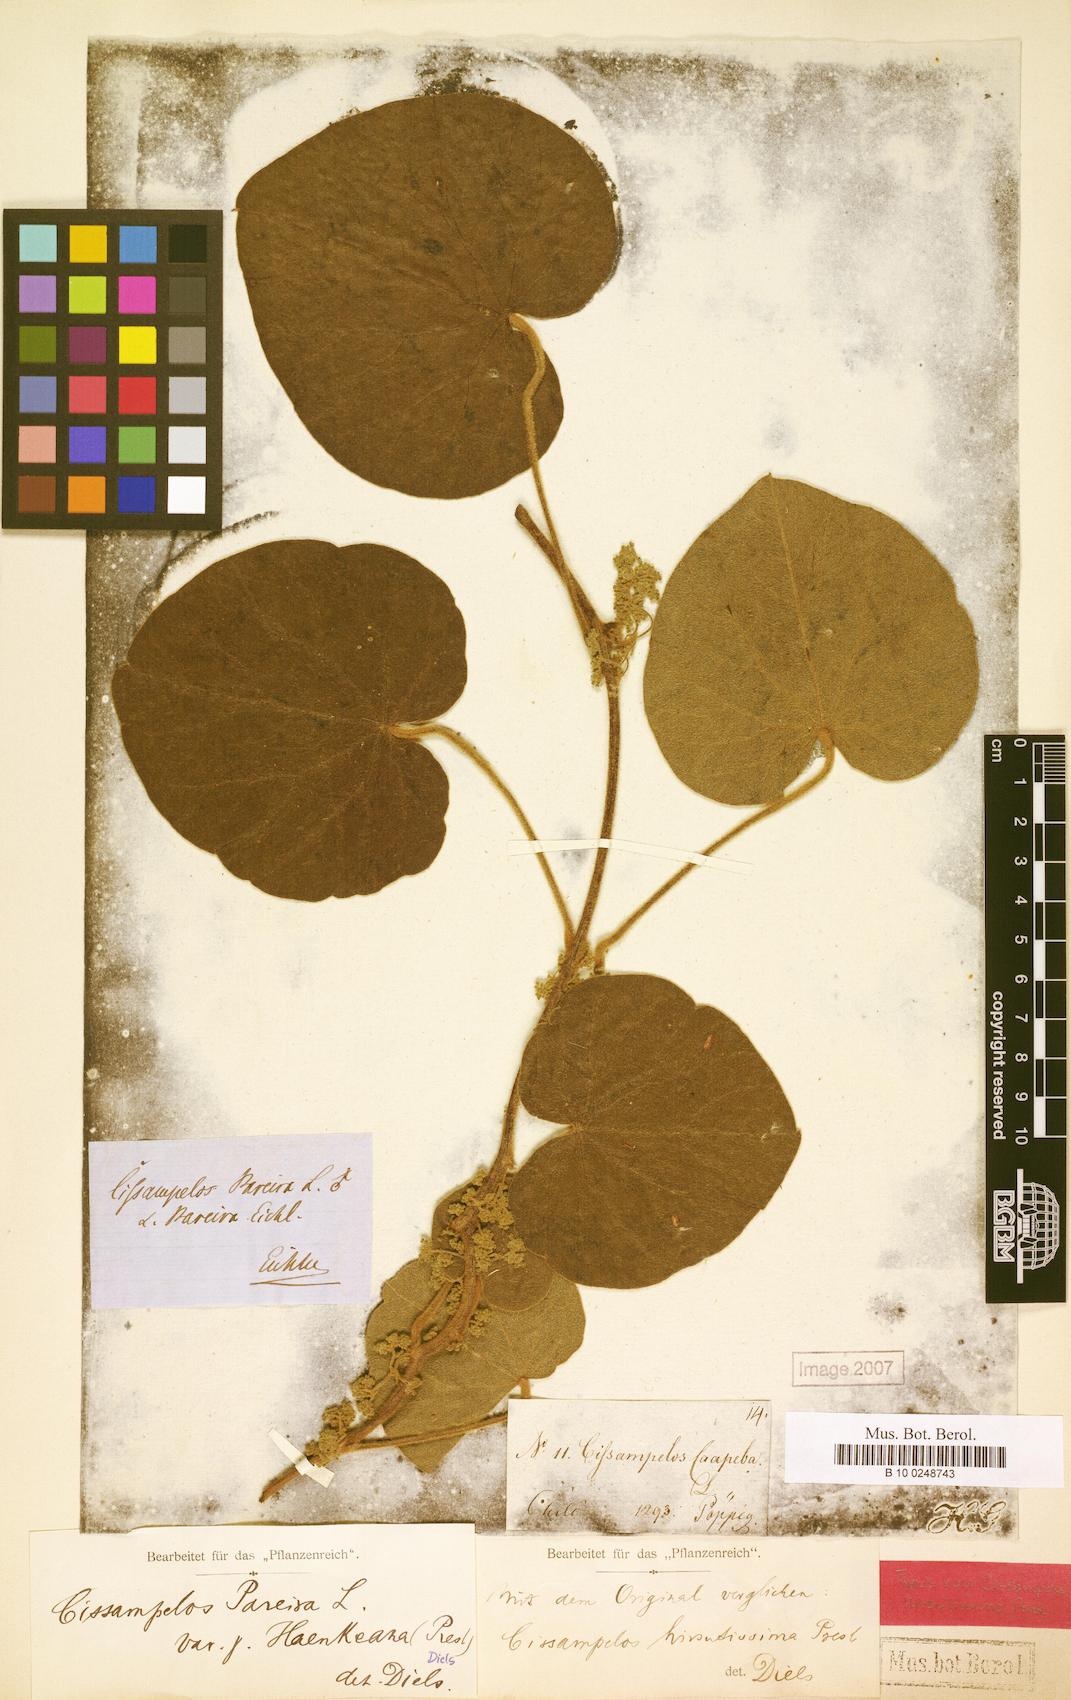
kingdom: Plantae
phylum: Tracheophyta
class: Magnoliopsida
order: Ranunculales
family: Menispermaceae
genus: Cissampelos
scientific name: Cissampelos pareira
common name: Velvetleaf
